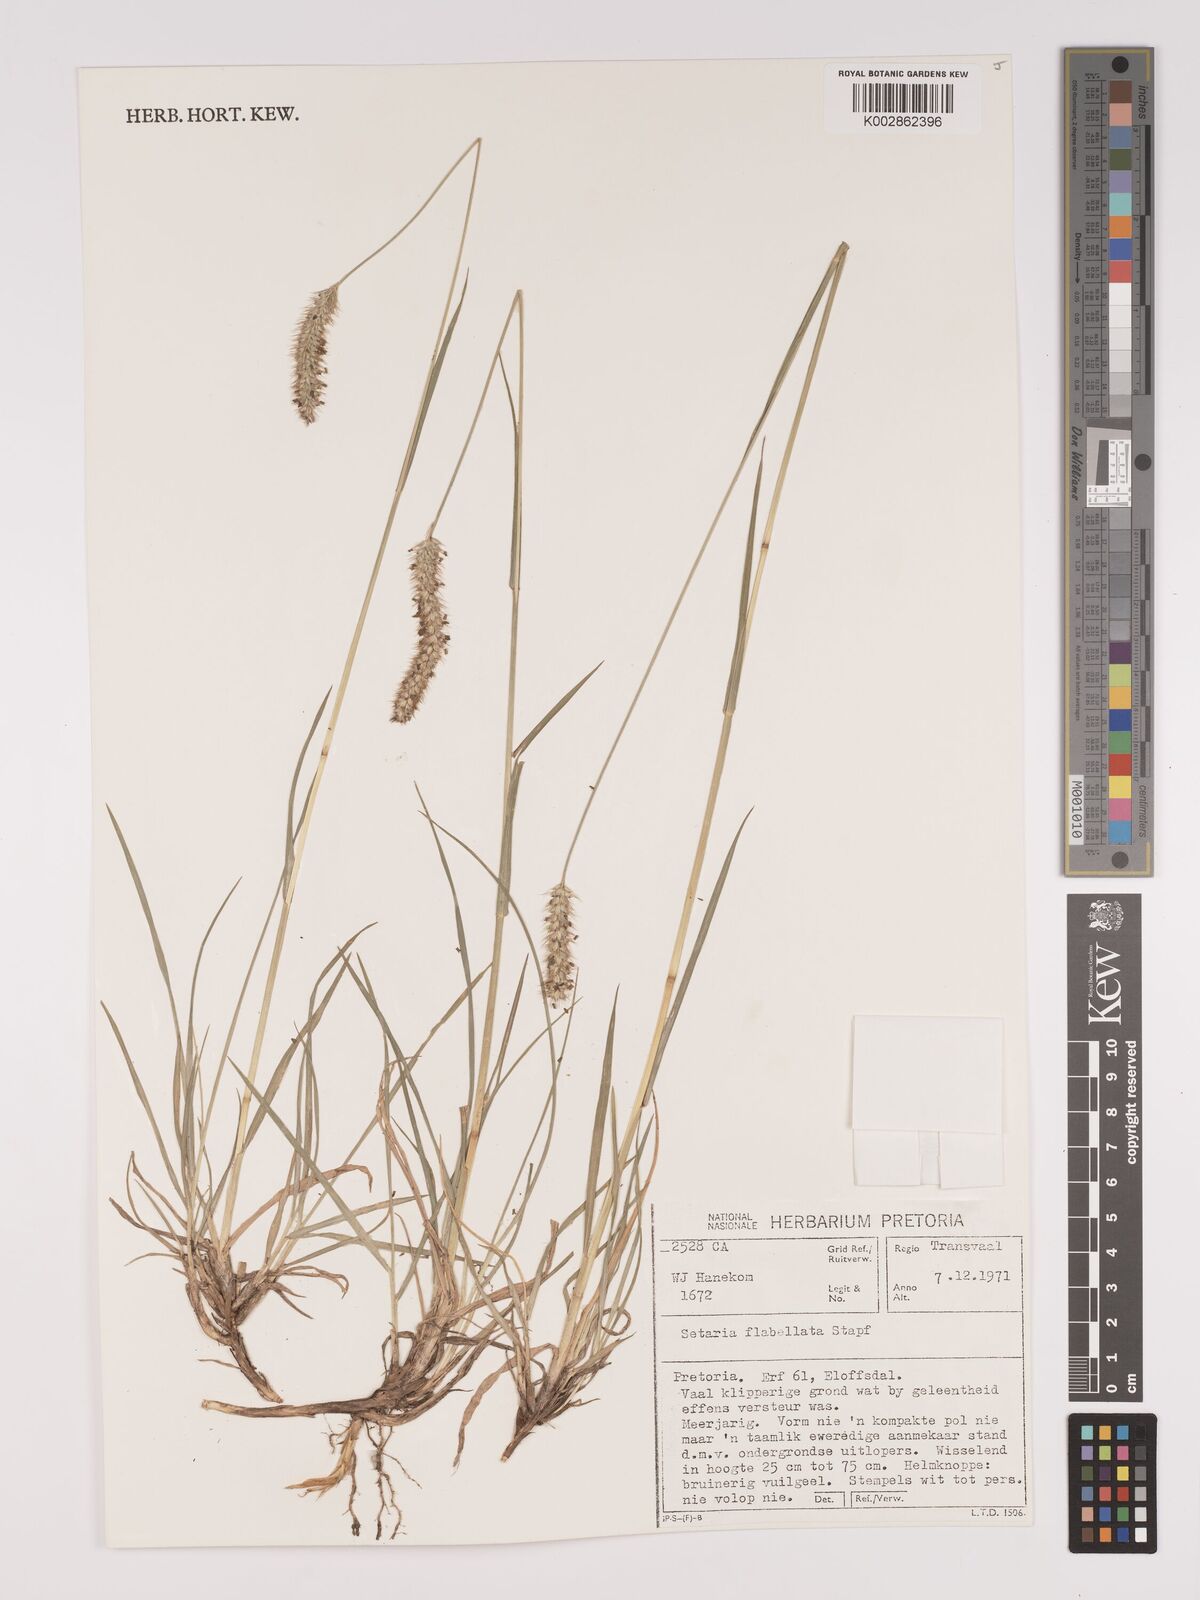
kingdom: Plantae
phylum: Tracheophyta
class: Liliopsida
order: Poales
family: Poaceae
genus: Setaria
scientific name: Setaria sphacelata
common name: African bristlegrass
